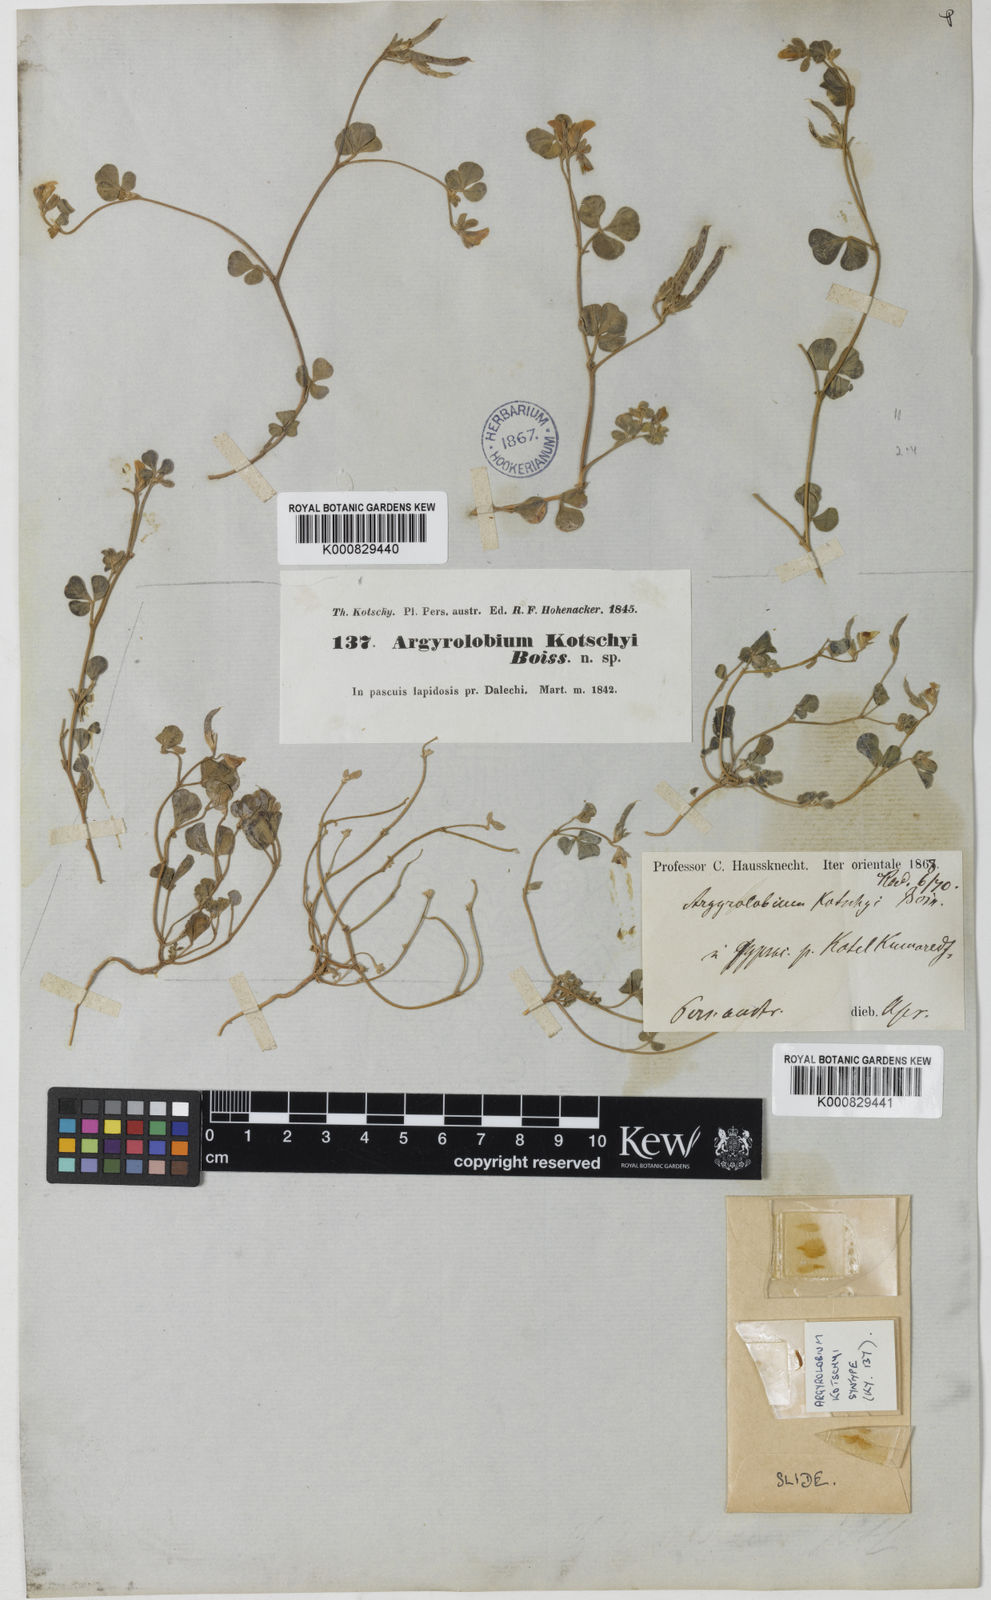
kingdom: Plantae
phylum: Tracheophyta
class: Magnoliopsida
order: Fabales
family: Fabaceae
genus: Argyrolobium
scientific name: Argyrolobium roseum
